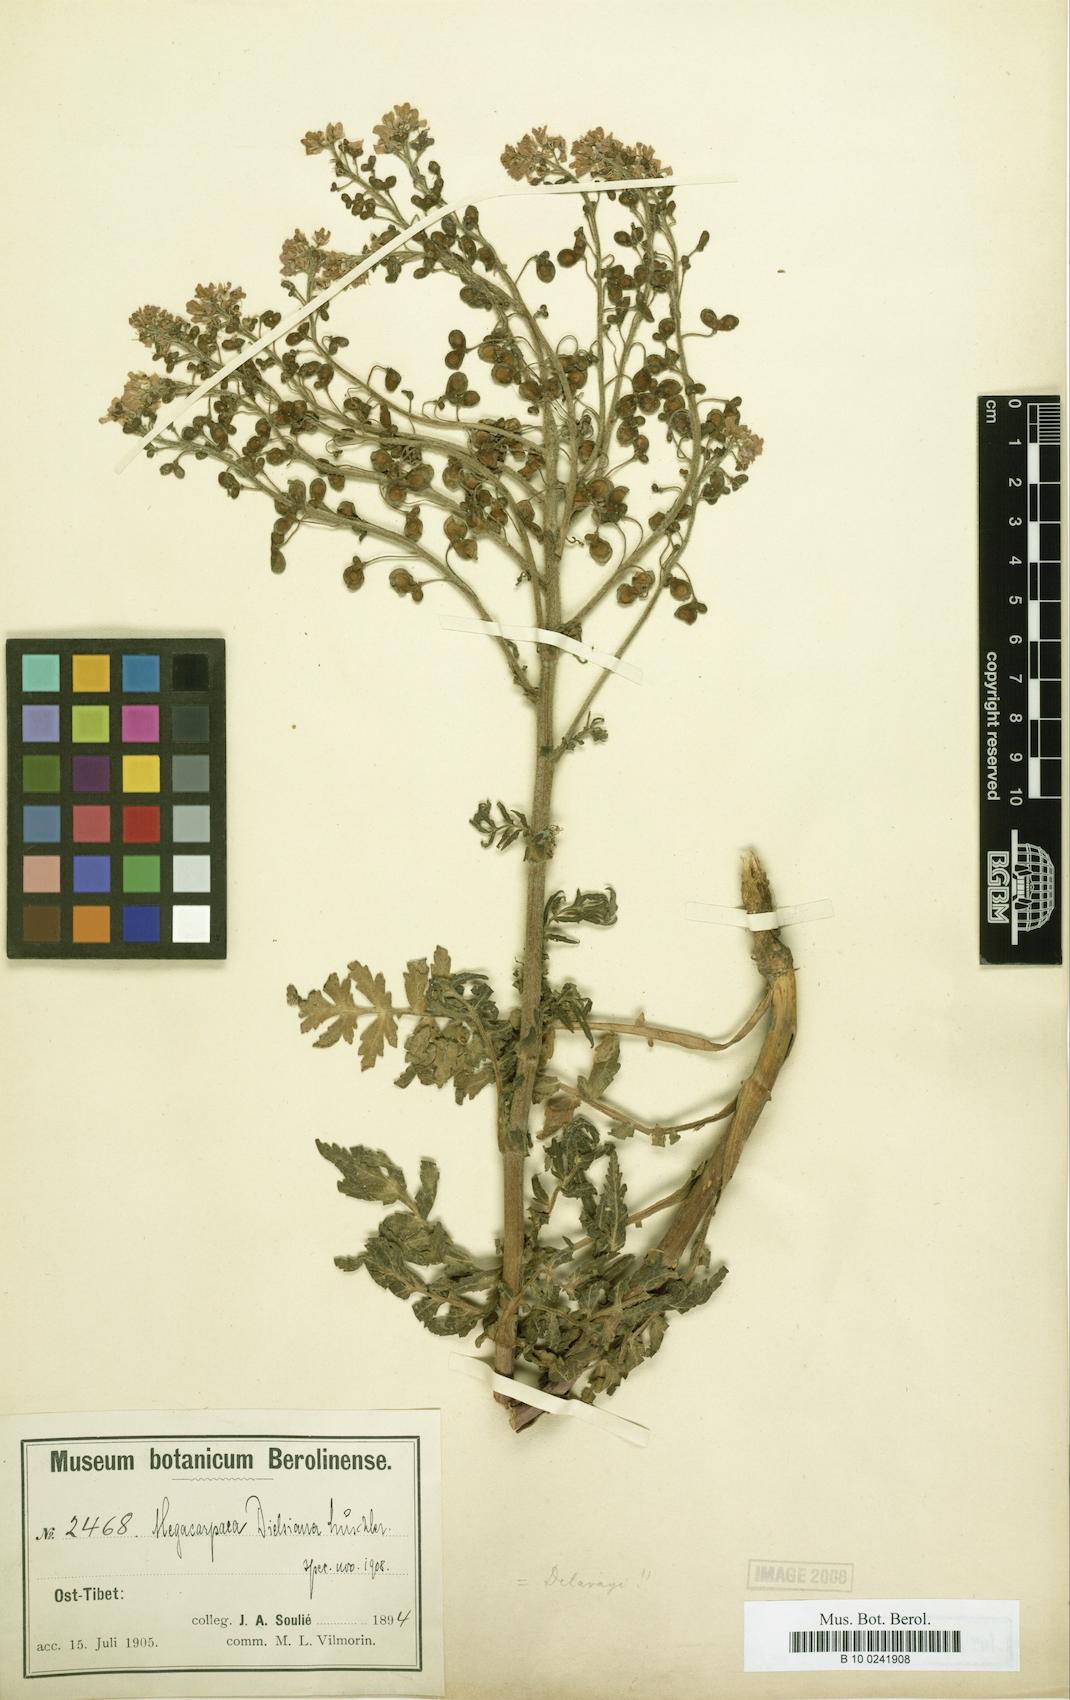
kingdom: Plantae
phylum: Tracheophyta
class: Magnoliopsida
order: Brassicales
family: Brassicaceae
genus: Megacarpaea
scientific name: Megacarpaea
